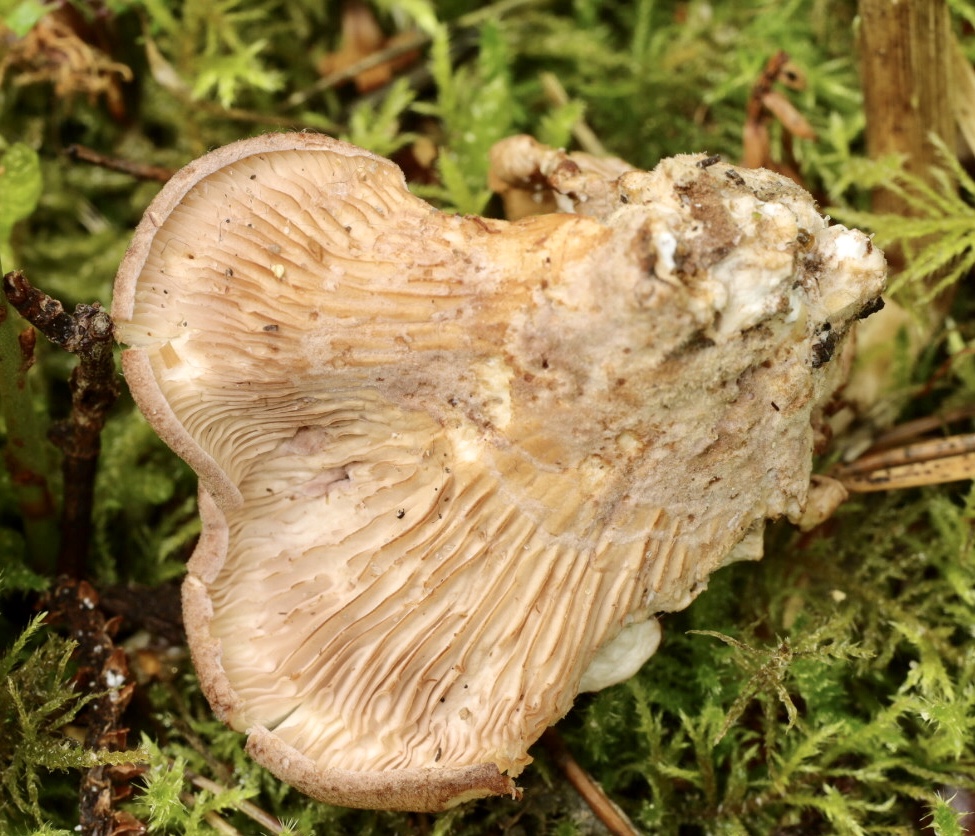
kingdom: Fungi
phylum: Basidiomycota
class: Agaricomycetes
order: Polyporales
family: Panaceae
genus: Panus
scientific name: Panus conchatus
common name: filtstokket læderhat
